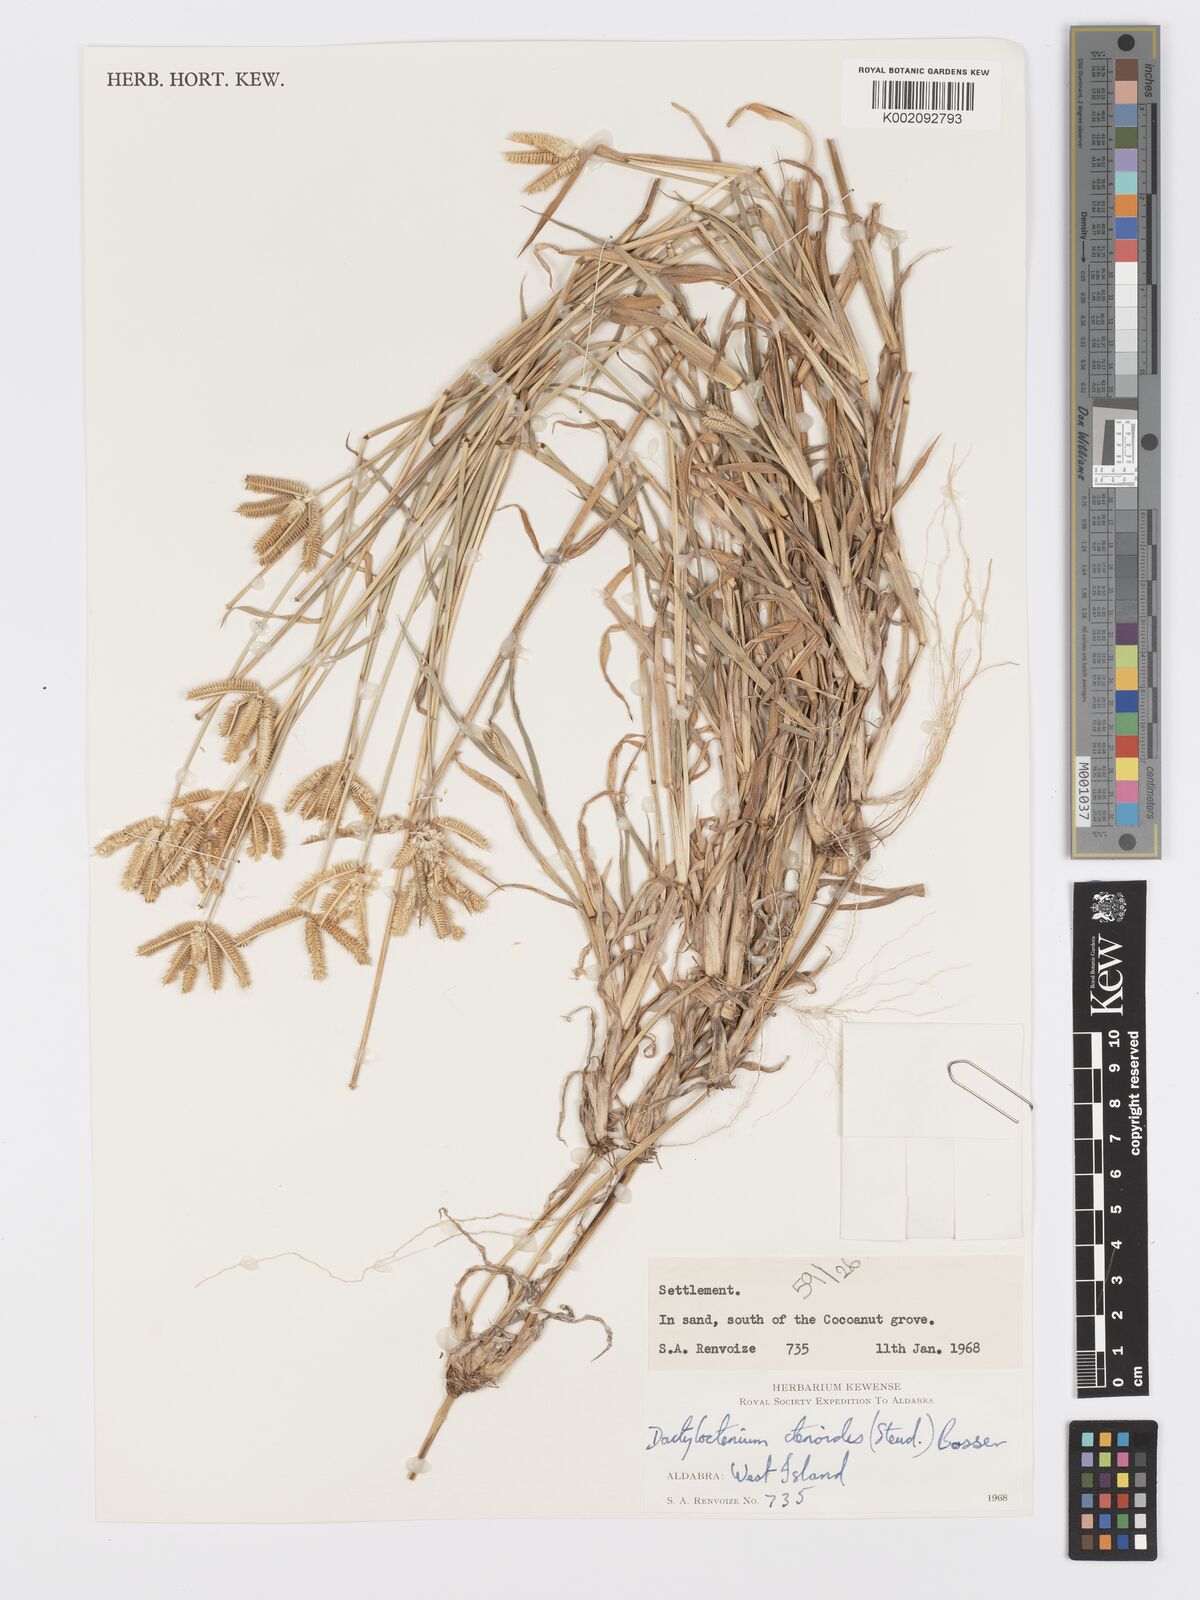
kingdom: Plantae
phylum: Tracheophyta
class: Liliopsida
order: Poales
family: Poaceae
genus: Dactyloctenium
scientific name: Dactyloctenium ctenoides
